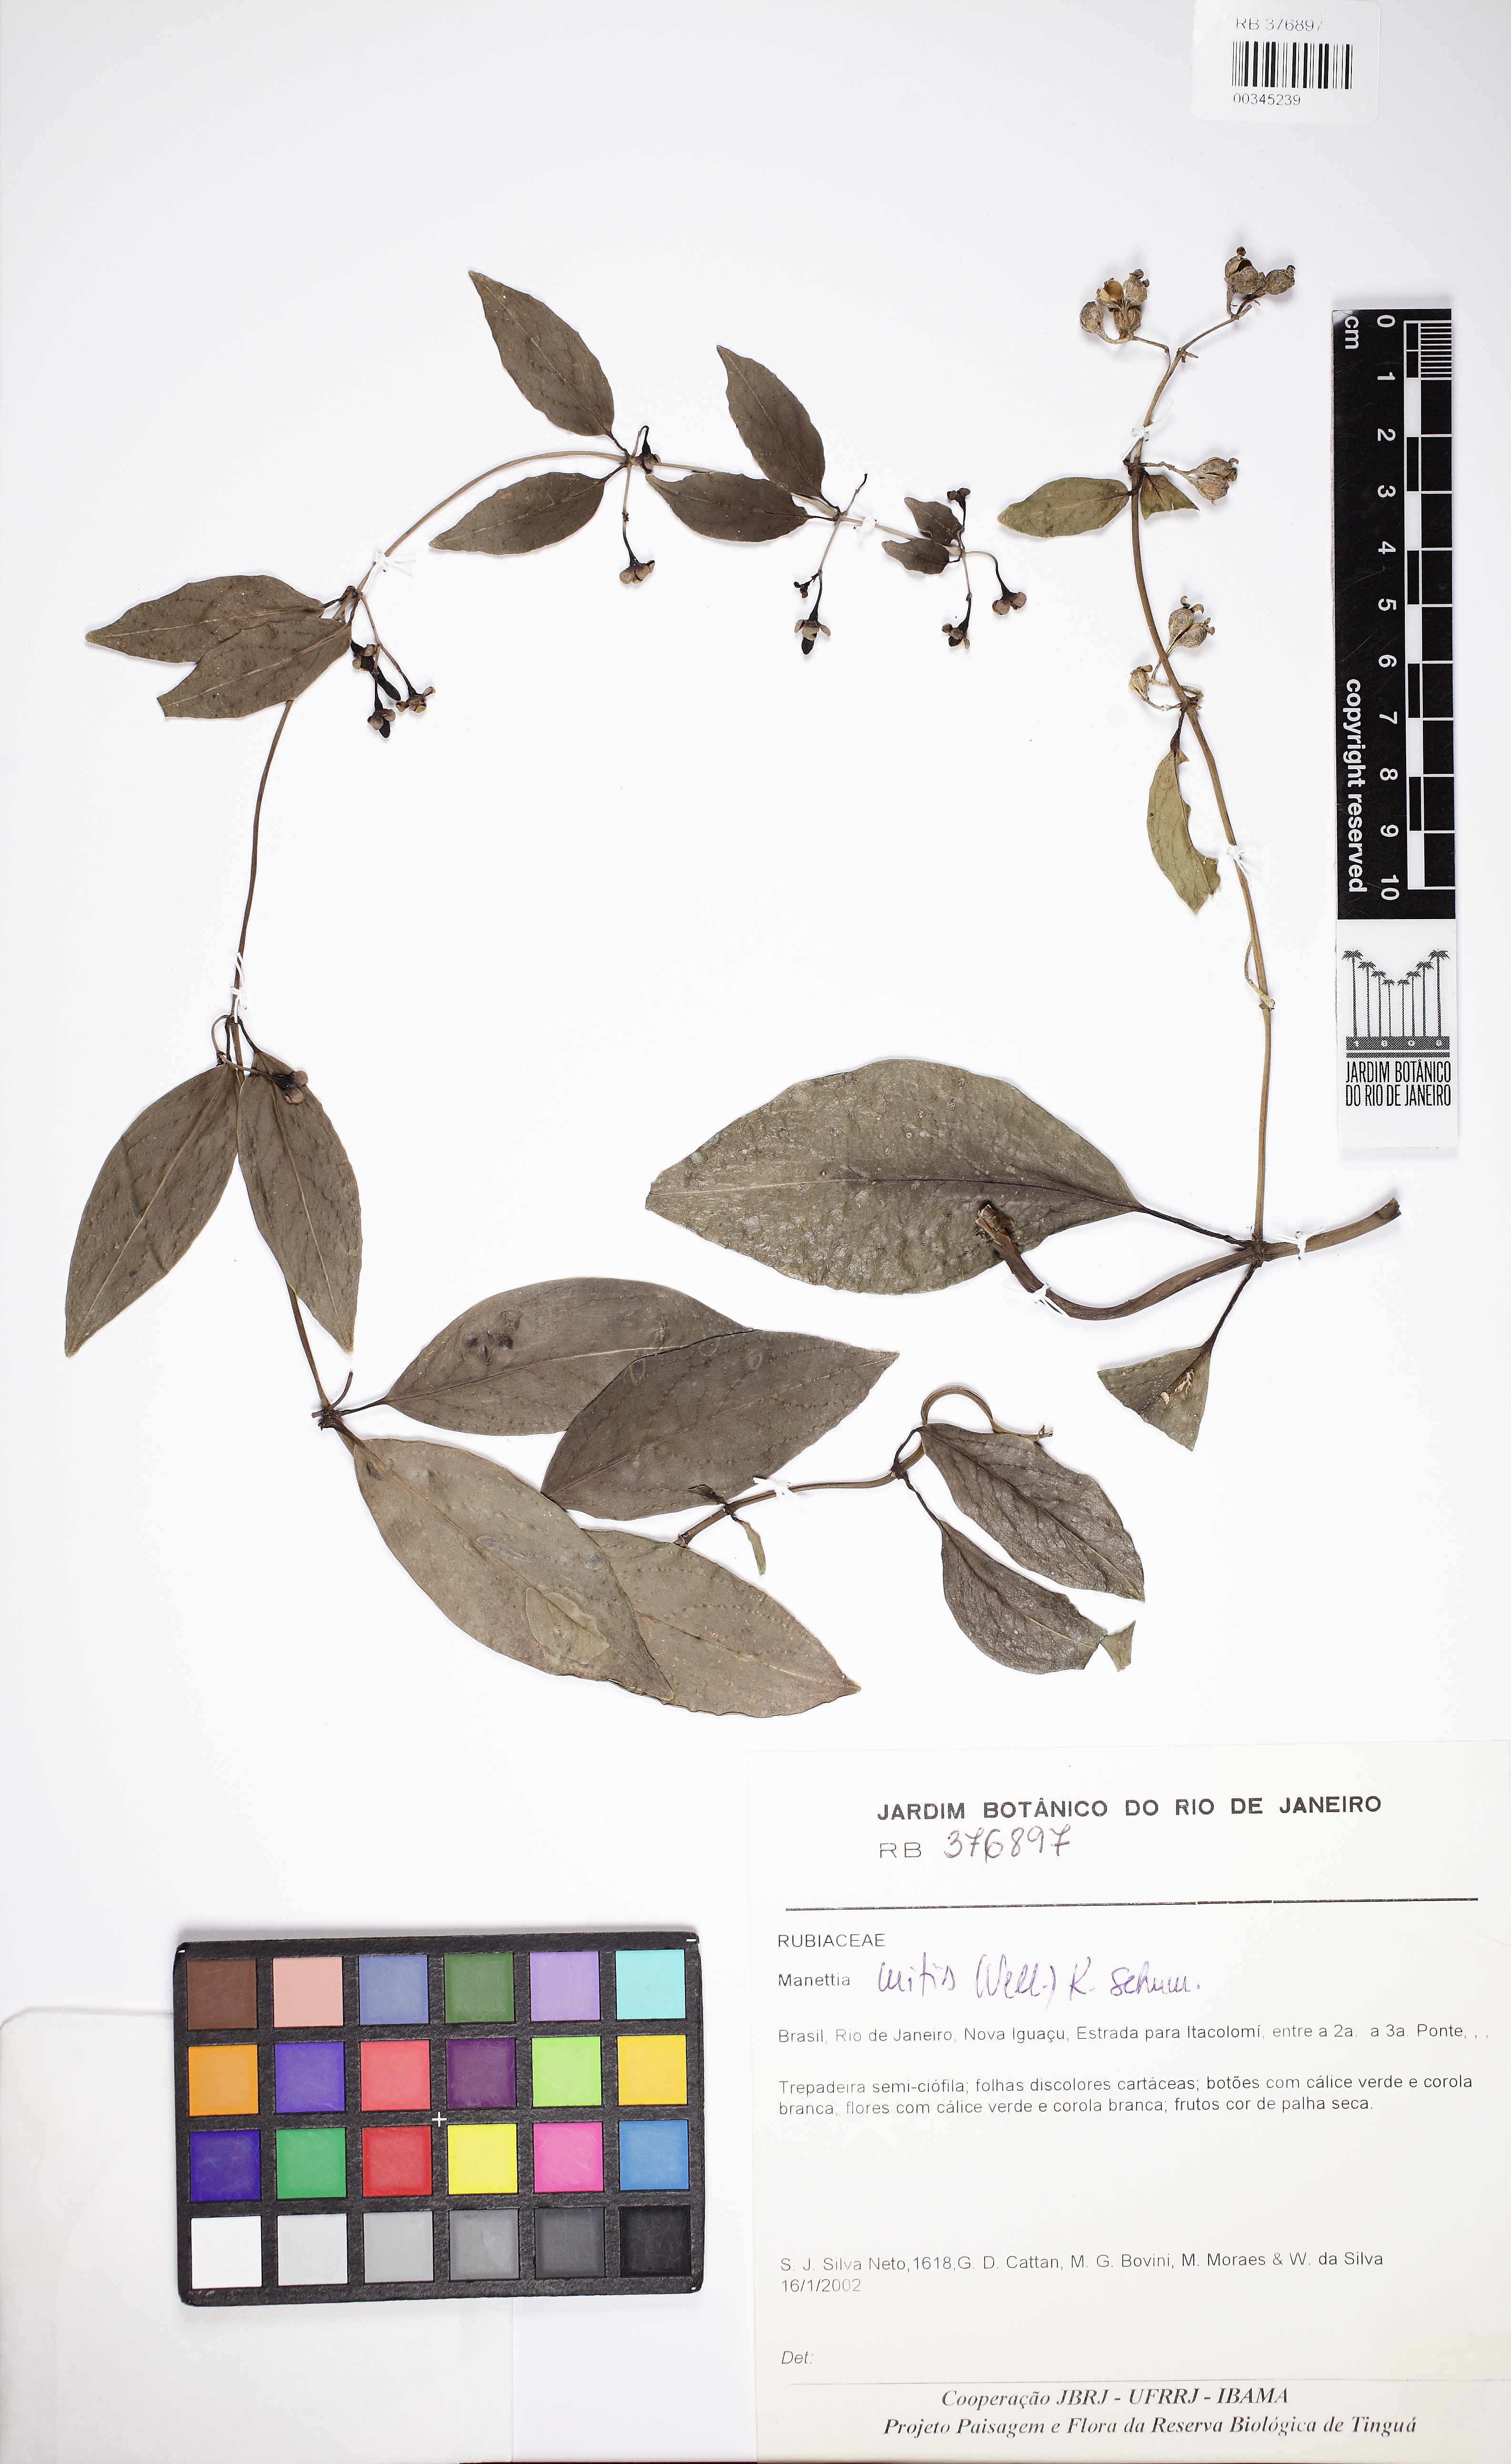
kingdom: Plantae
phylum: Tracheophyta
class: Magnoliopsida
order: Gentianales
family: Rubiaceae
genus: Manettia
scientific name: Manettia mitis
